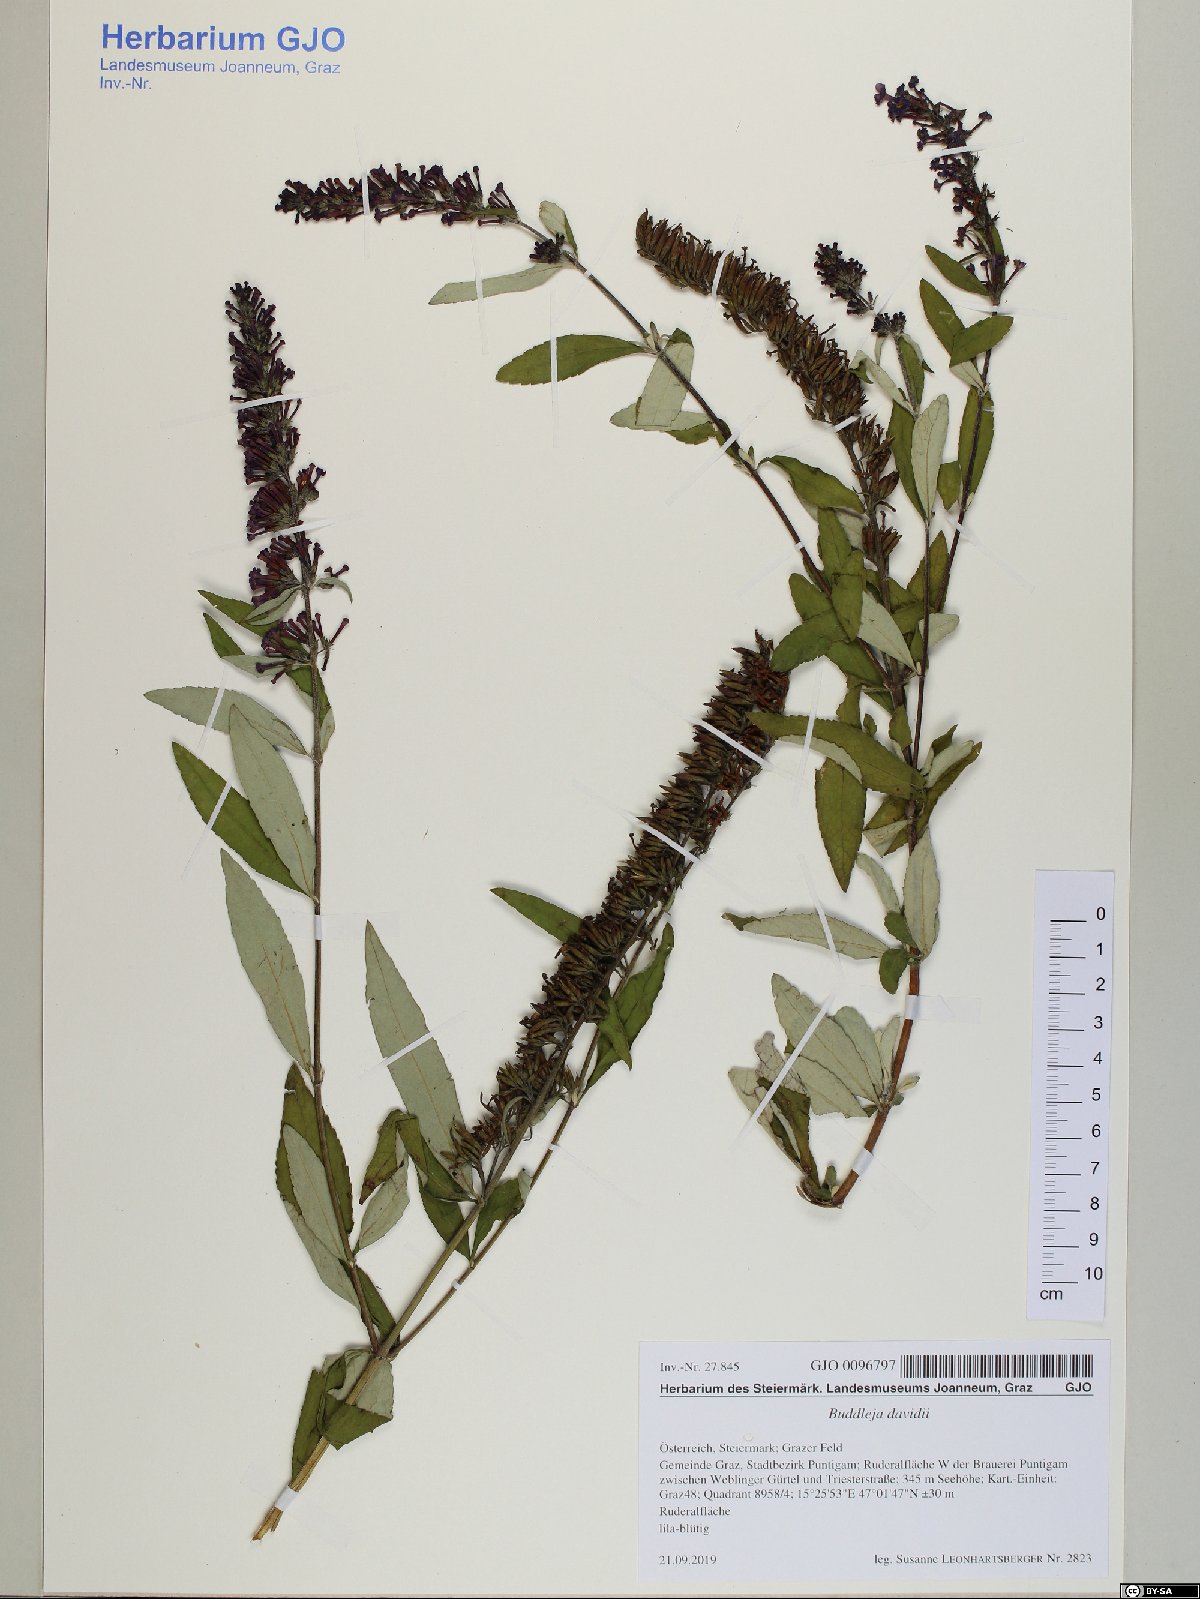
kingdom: Plantae
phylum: Tracheophyta
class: Magnoliopsida
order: Lamiales
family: Scrophulariaceae
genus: Buddleja
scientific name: Buddleja davidii
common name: Butterfly-bush
